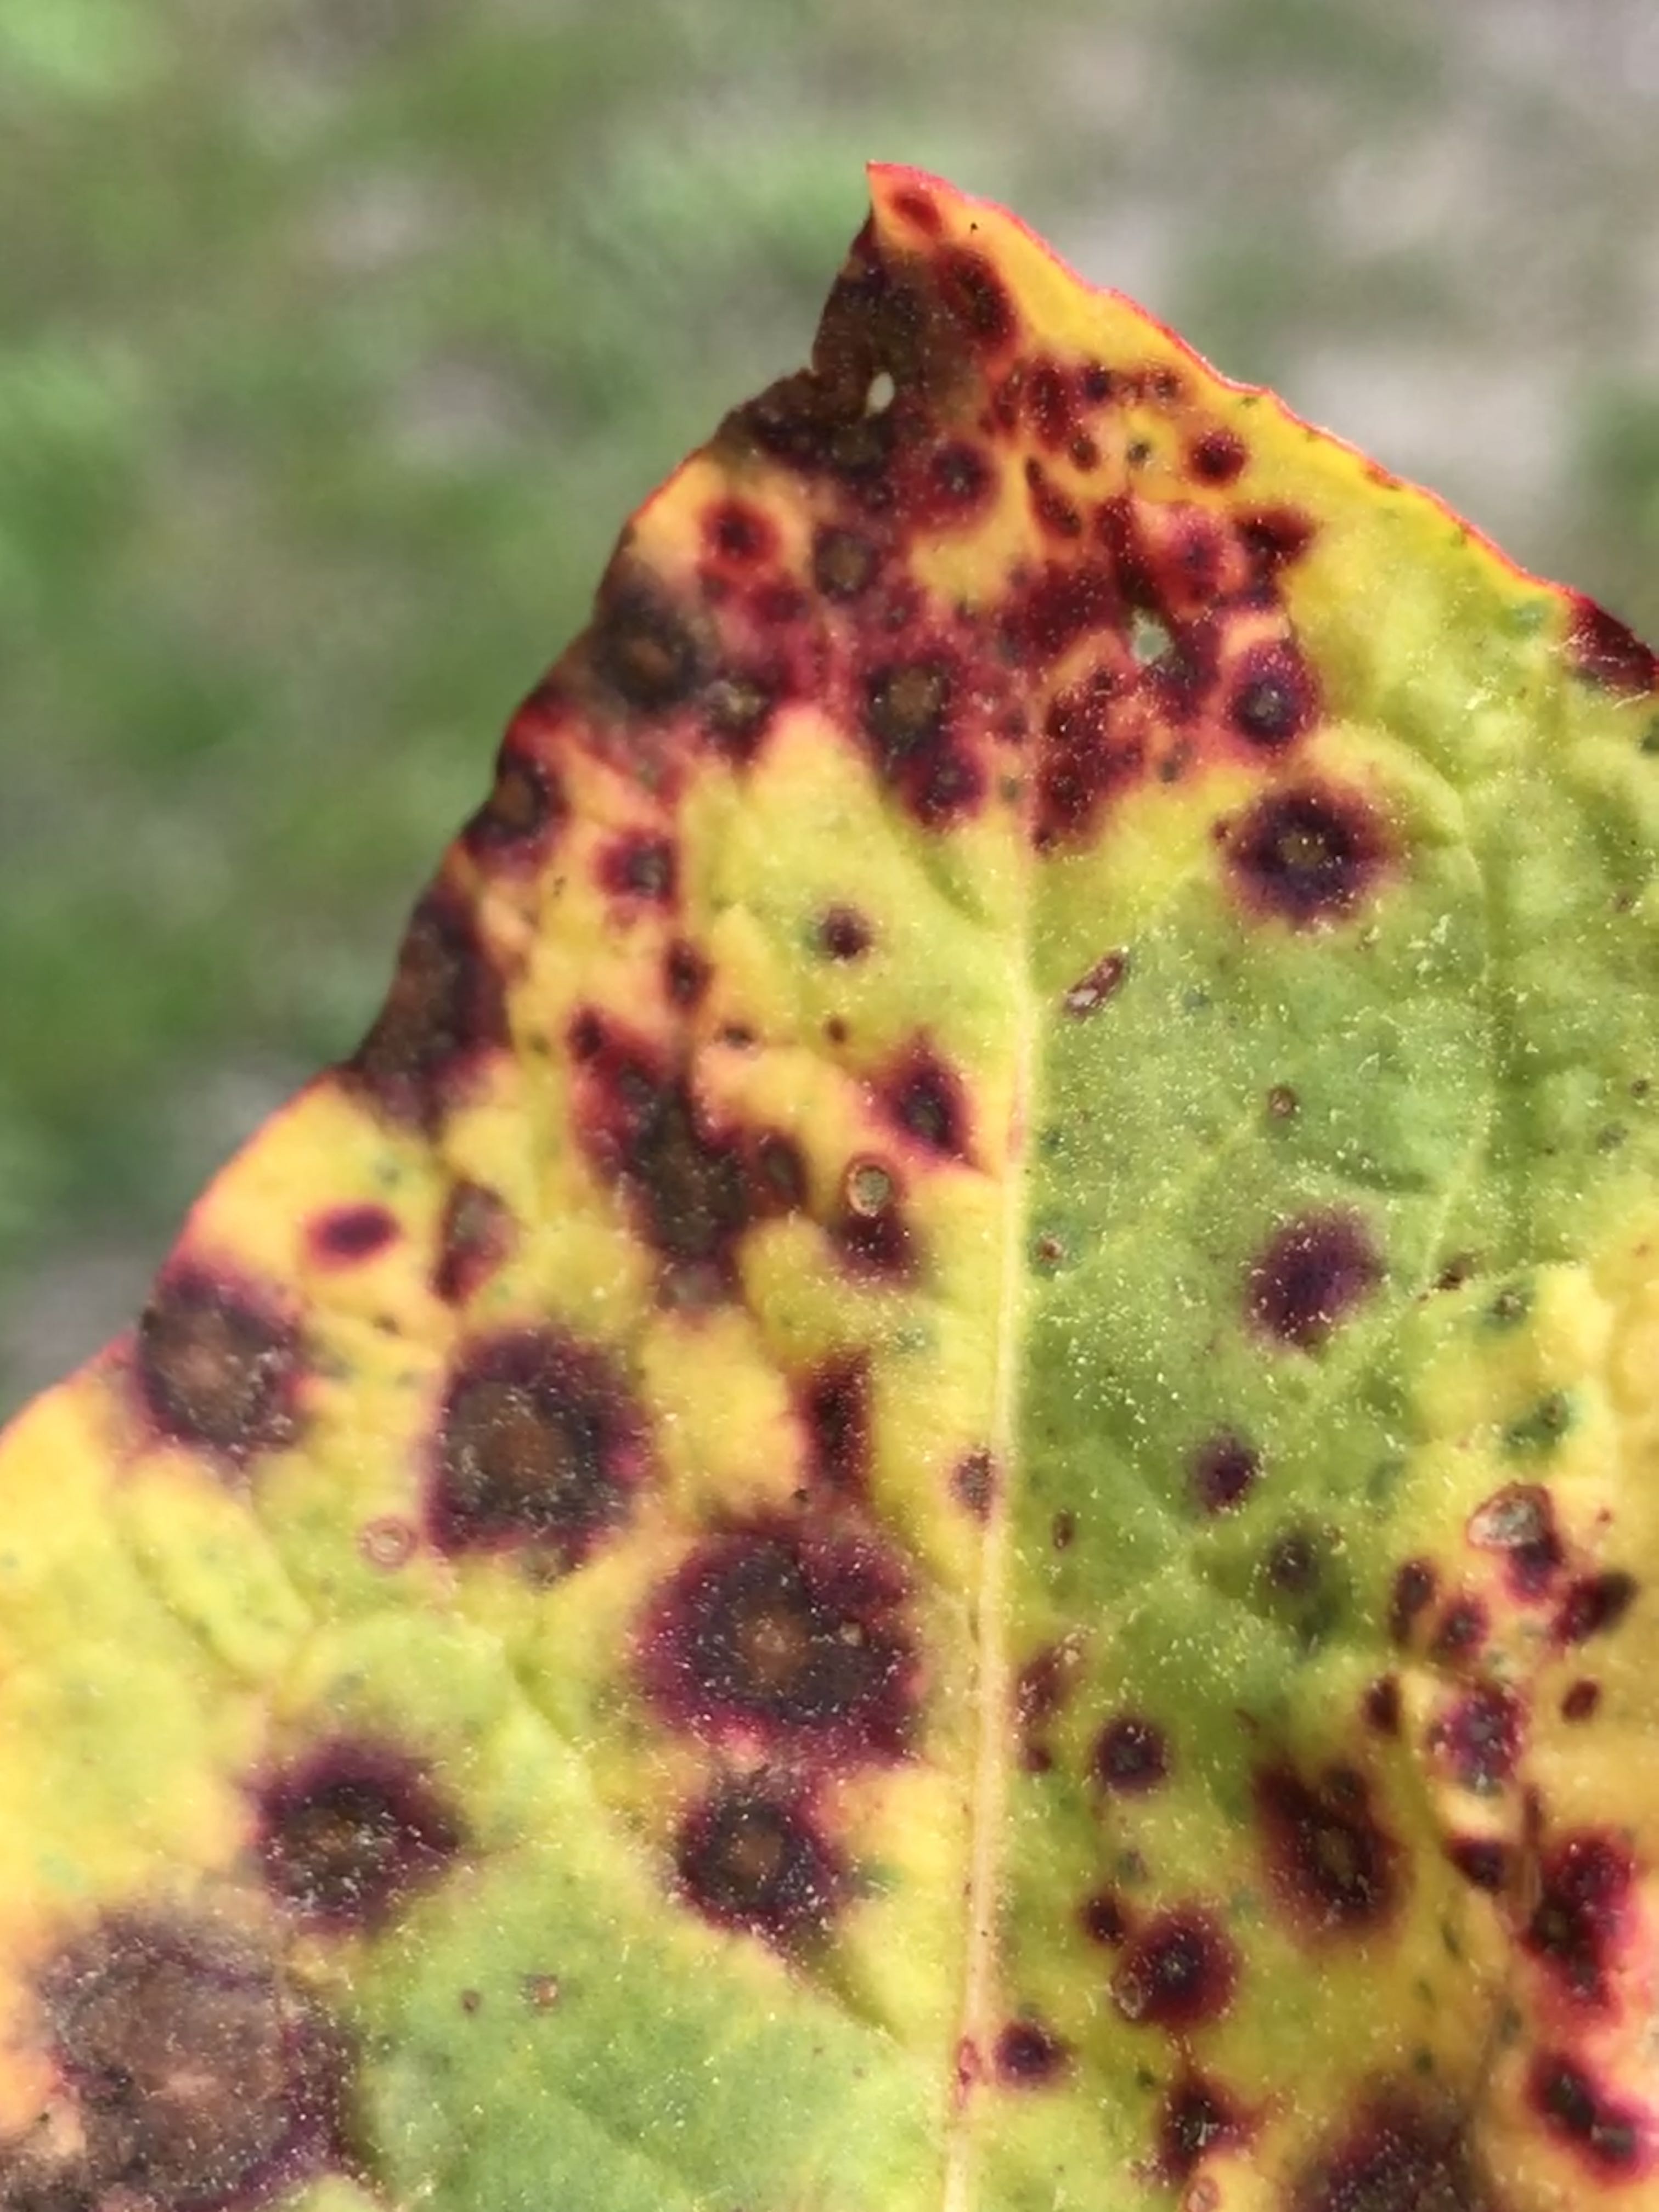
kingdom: Fungi
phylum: Ascomycota
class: Dothideomycetes
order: Capnodiales
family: Mycosphaerellaceae
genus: Ramularia
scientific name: Ramularia
